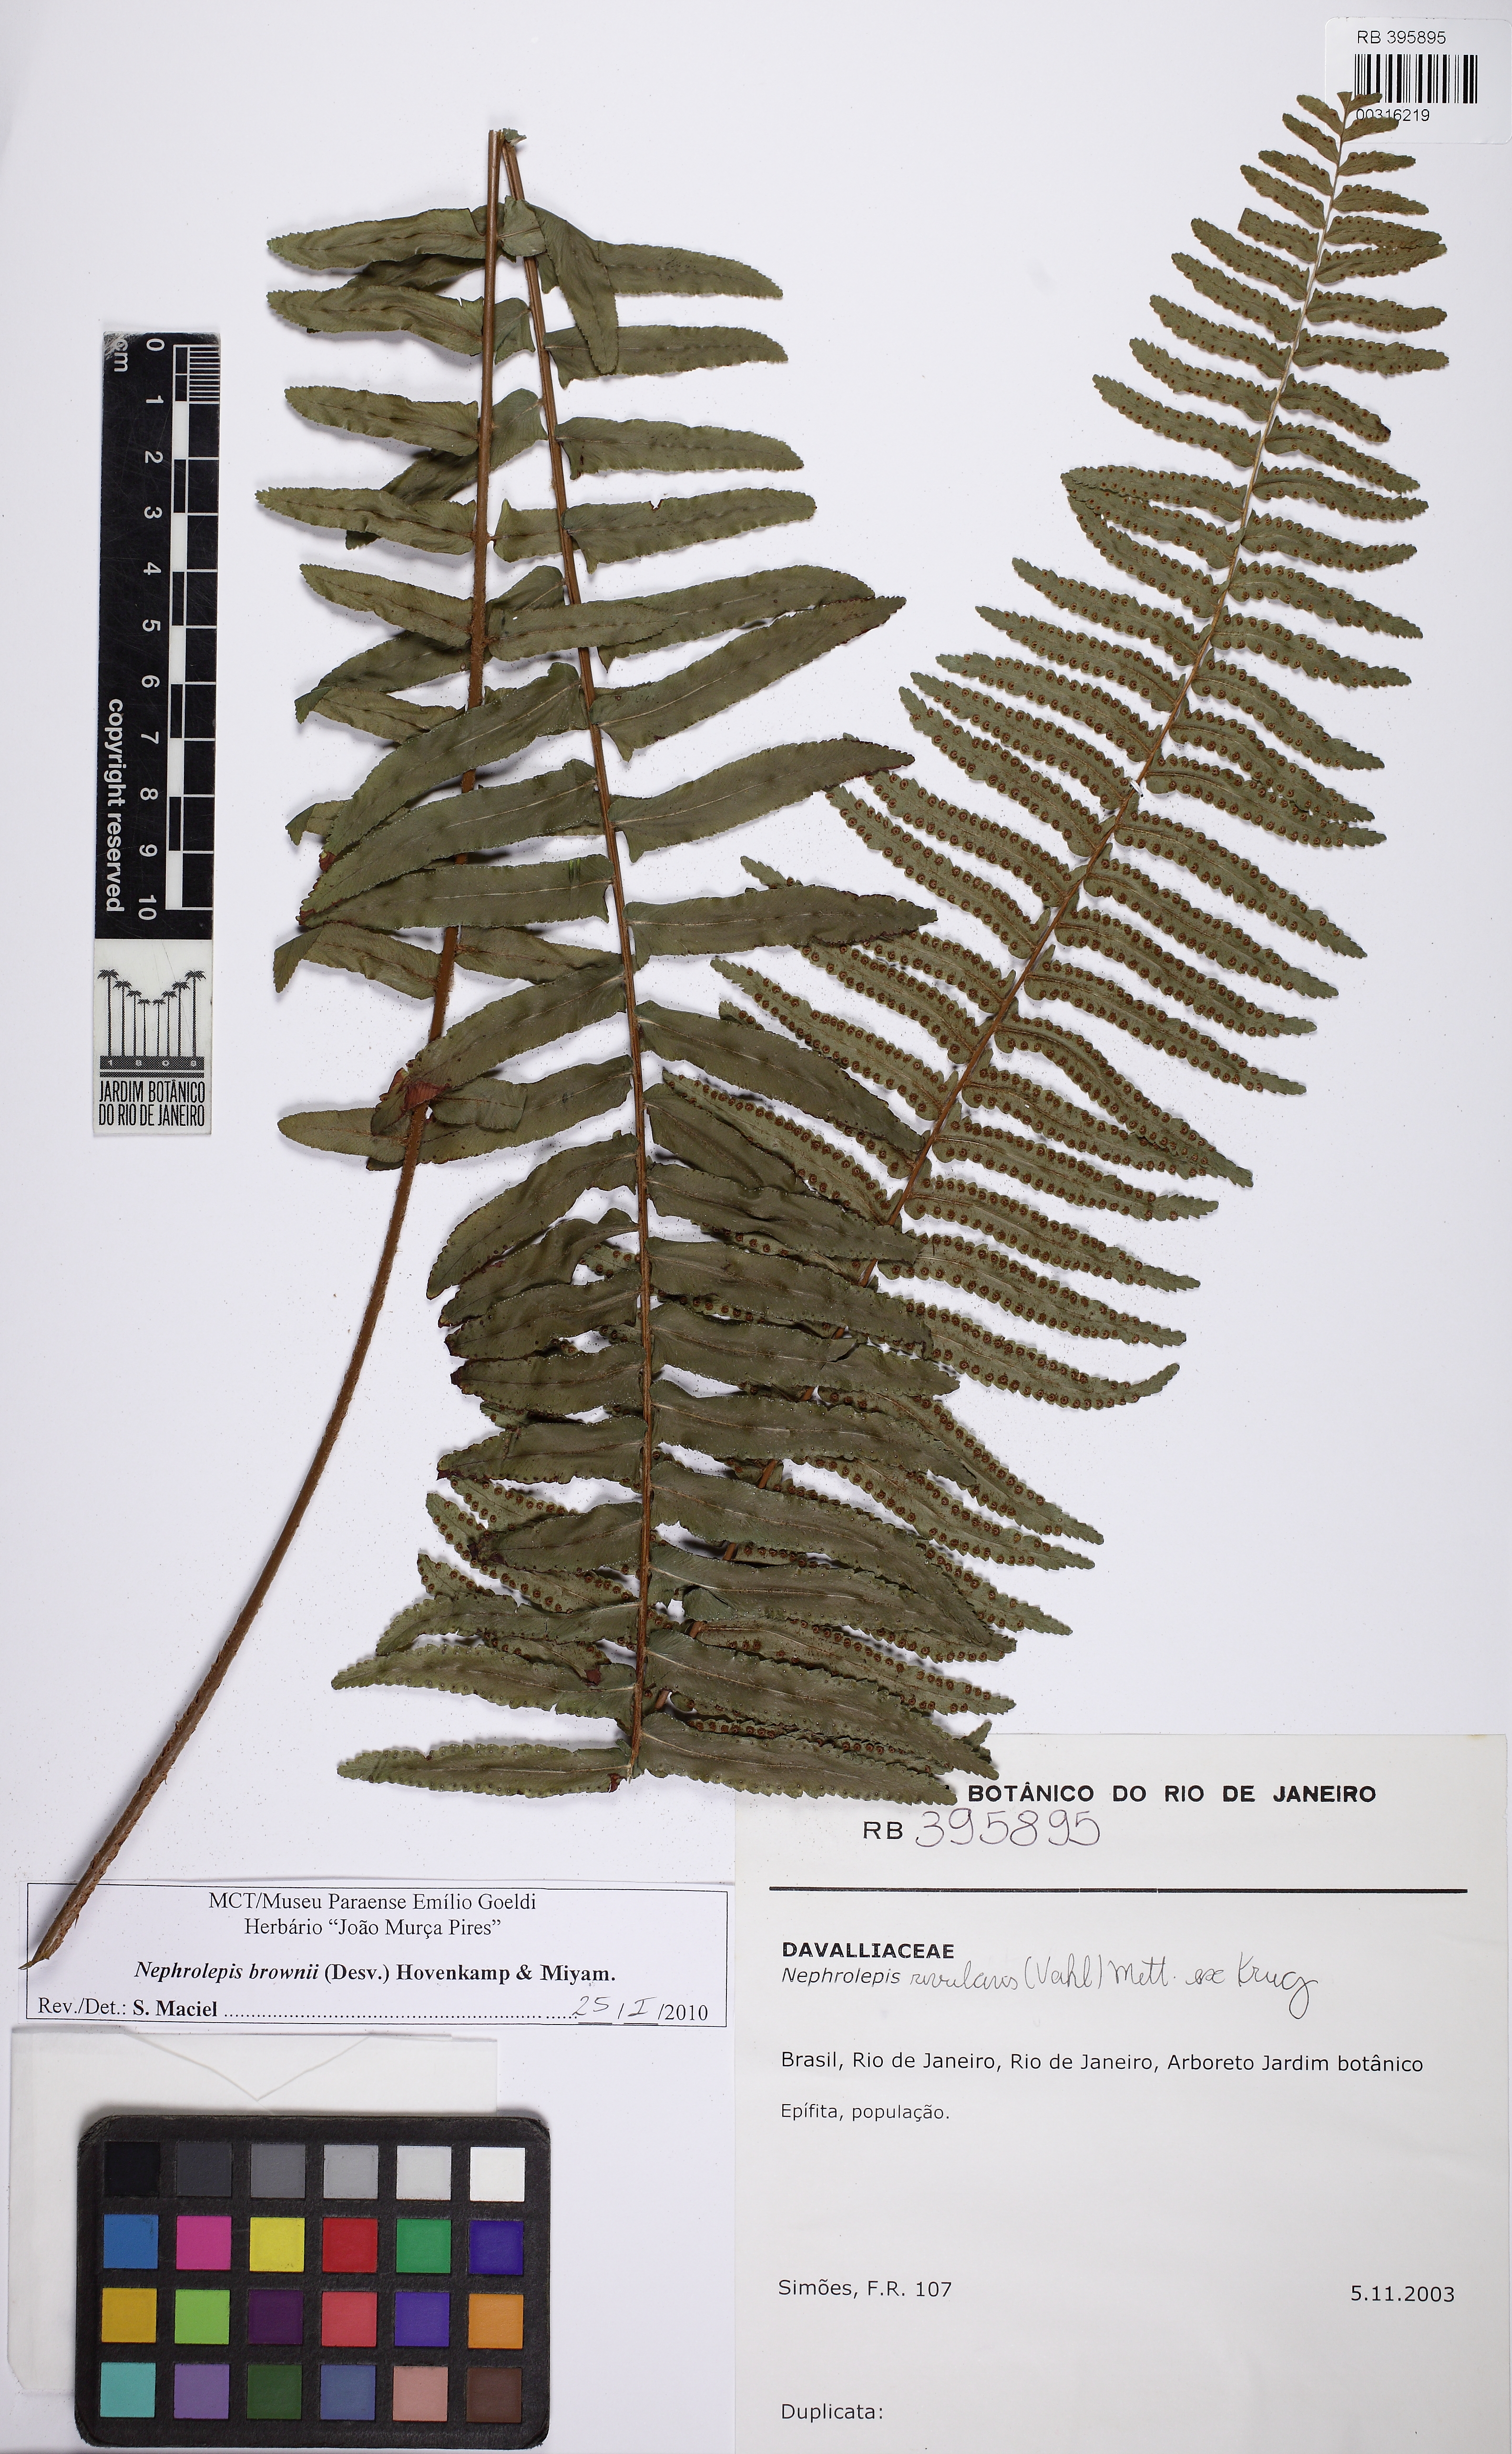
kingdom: Plantae
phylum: Tracheophyta
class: Polypodiopsida
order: Polypodiales
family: Nephrolepidaceae
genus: Nephrolepis
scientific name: Nephrolepis brownii
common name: Asian swordfern
